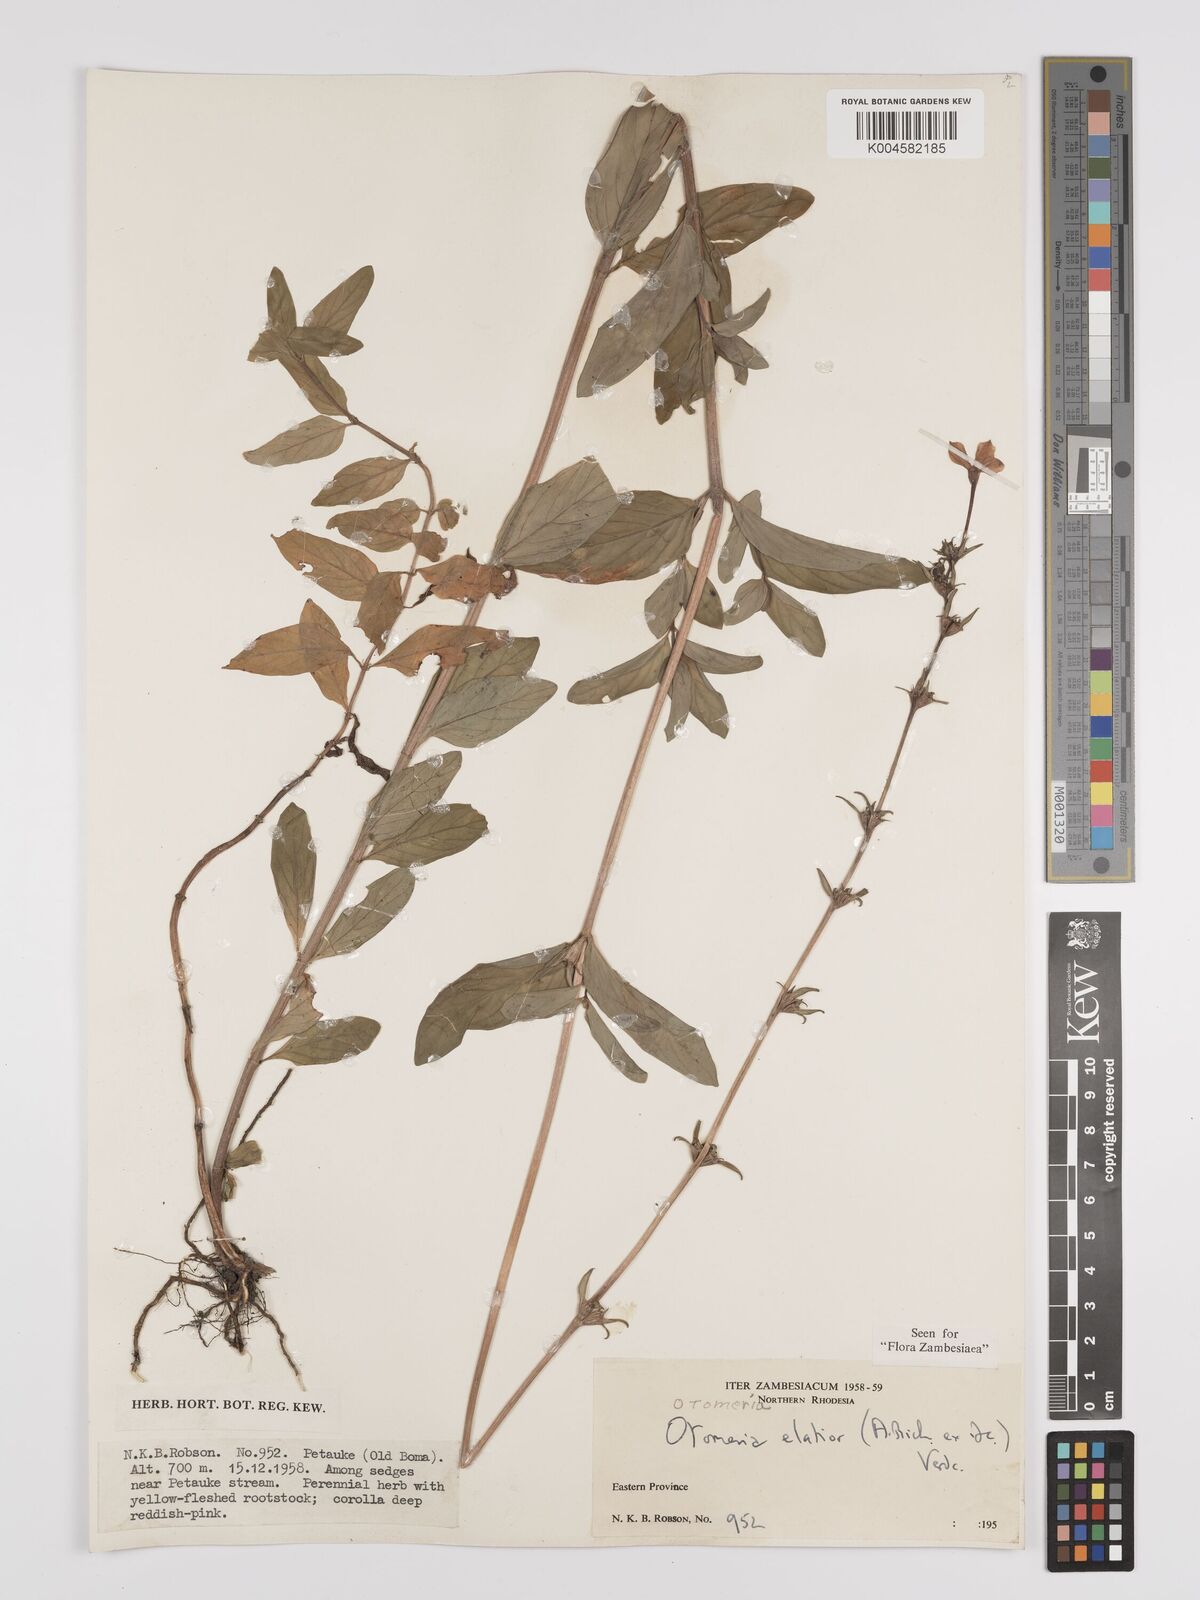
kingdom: Plantae
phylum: Tracheophyta
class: Magnoliopsida
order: Gentianales
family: Rubiaceae
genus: Otomeria
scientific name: Otomeria elatior
